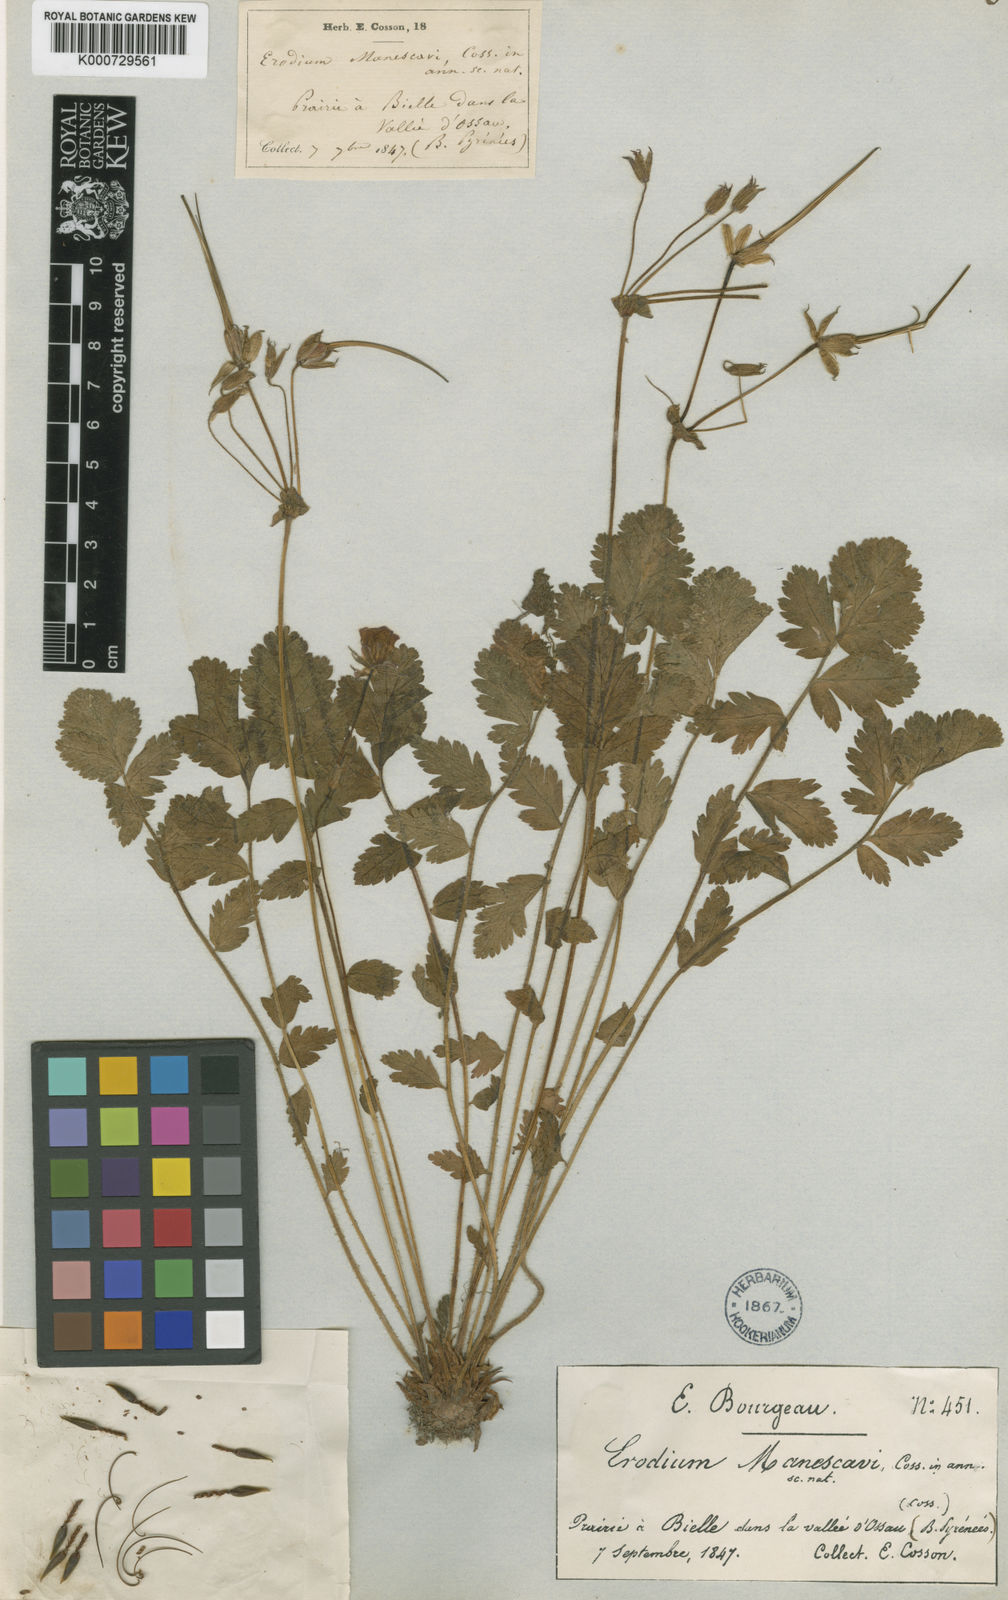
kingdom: Plantae
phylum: Tracheophyta
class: Magnoliopsida
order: Geraniales
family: Geraniaceae
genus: Erodium
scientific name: Erodium manescavi
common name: Garden stork's-bill
